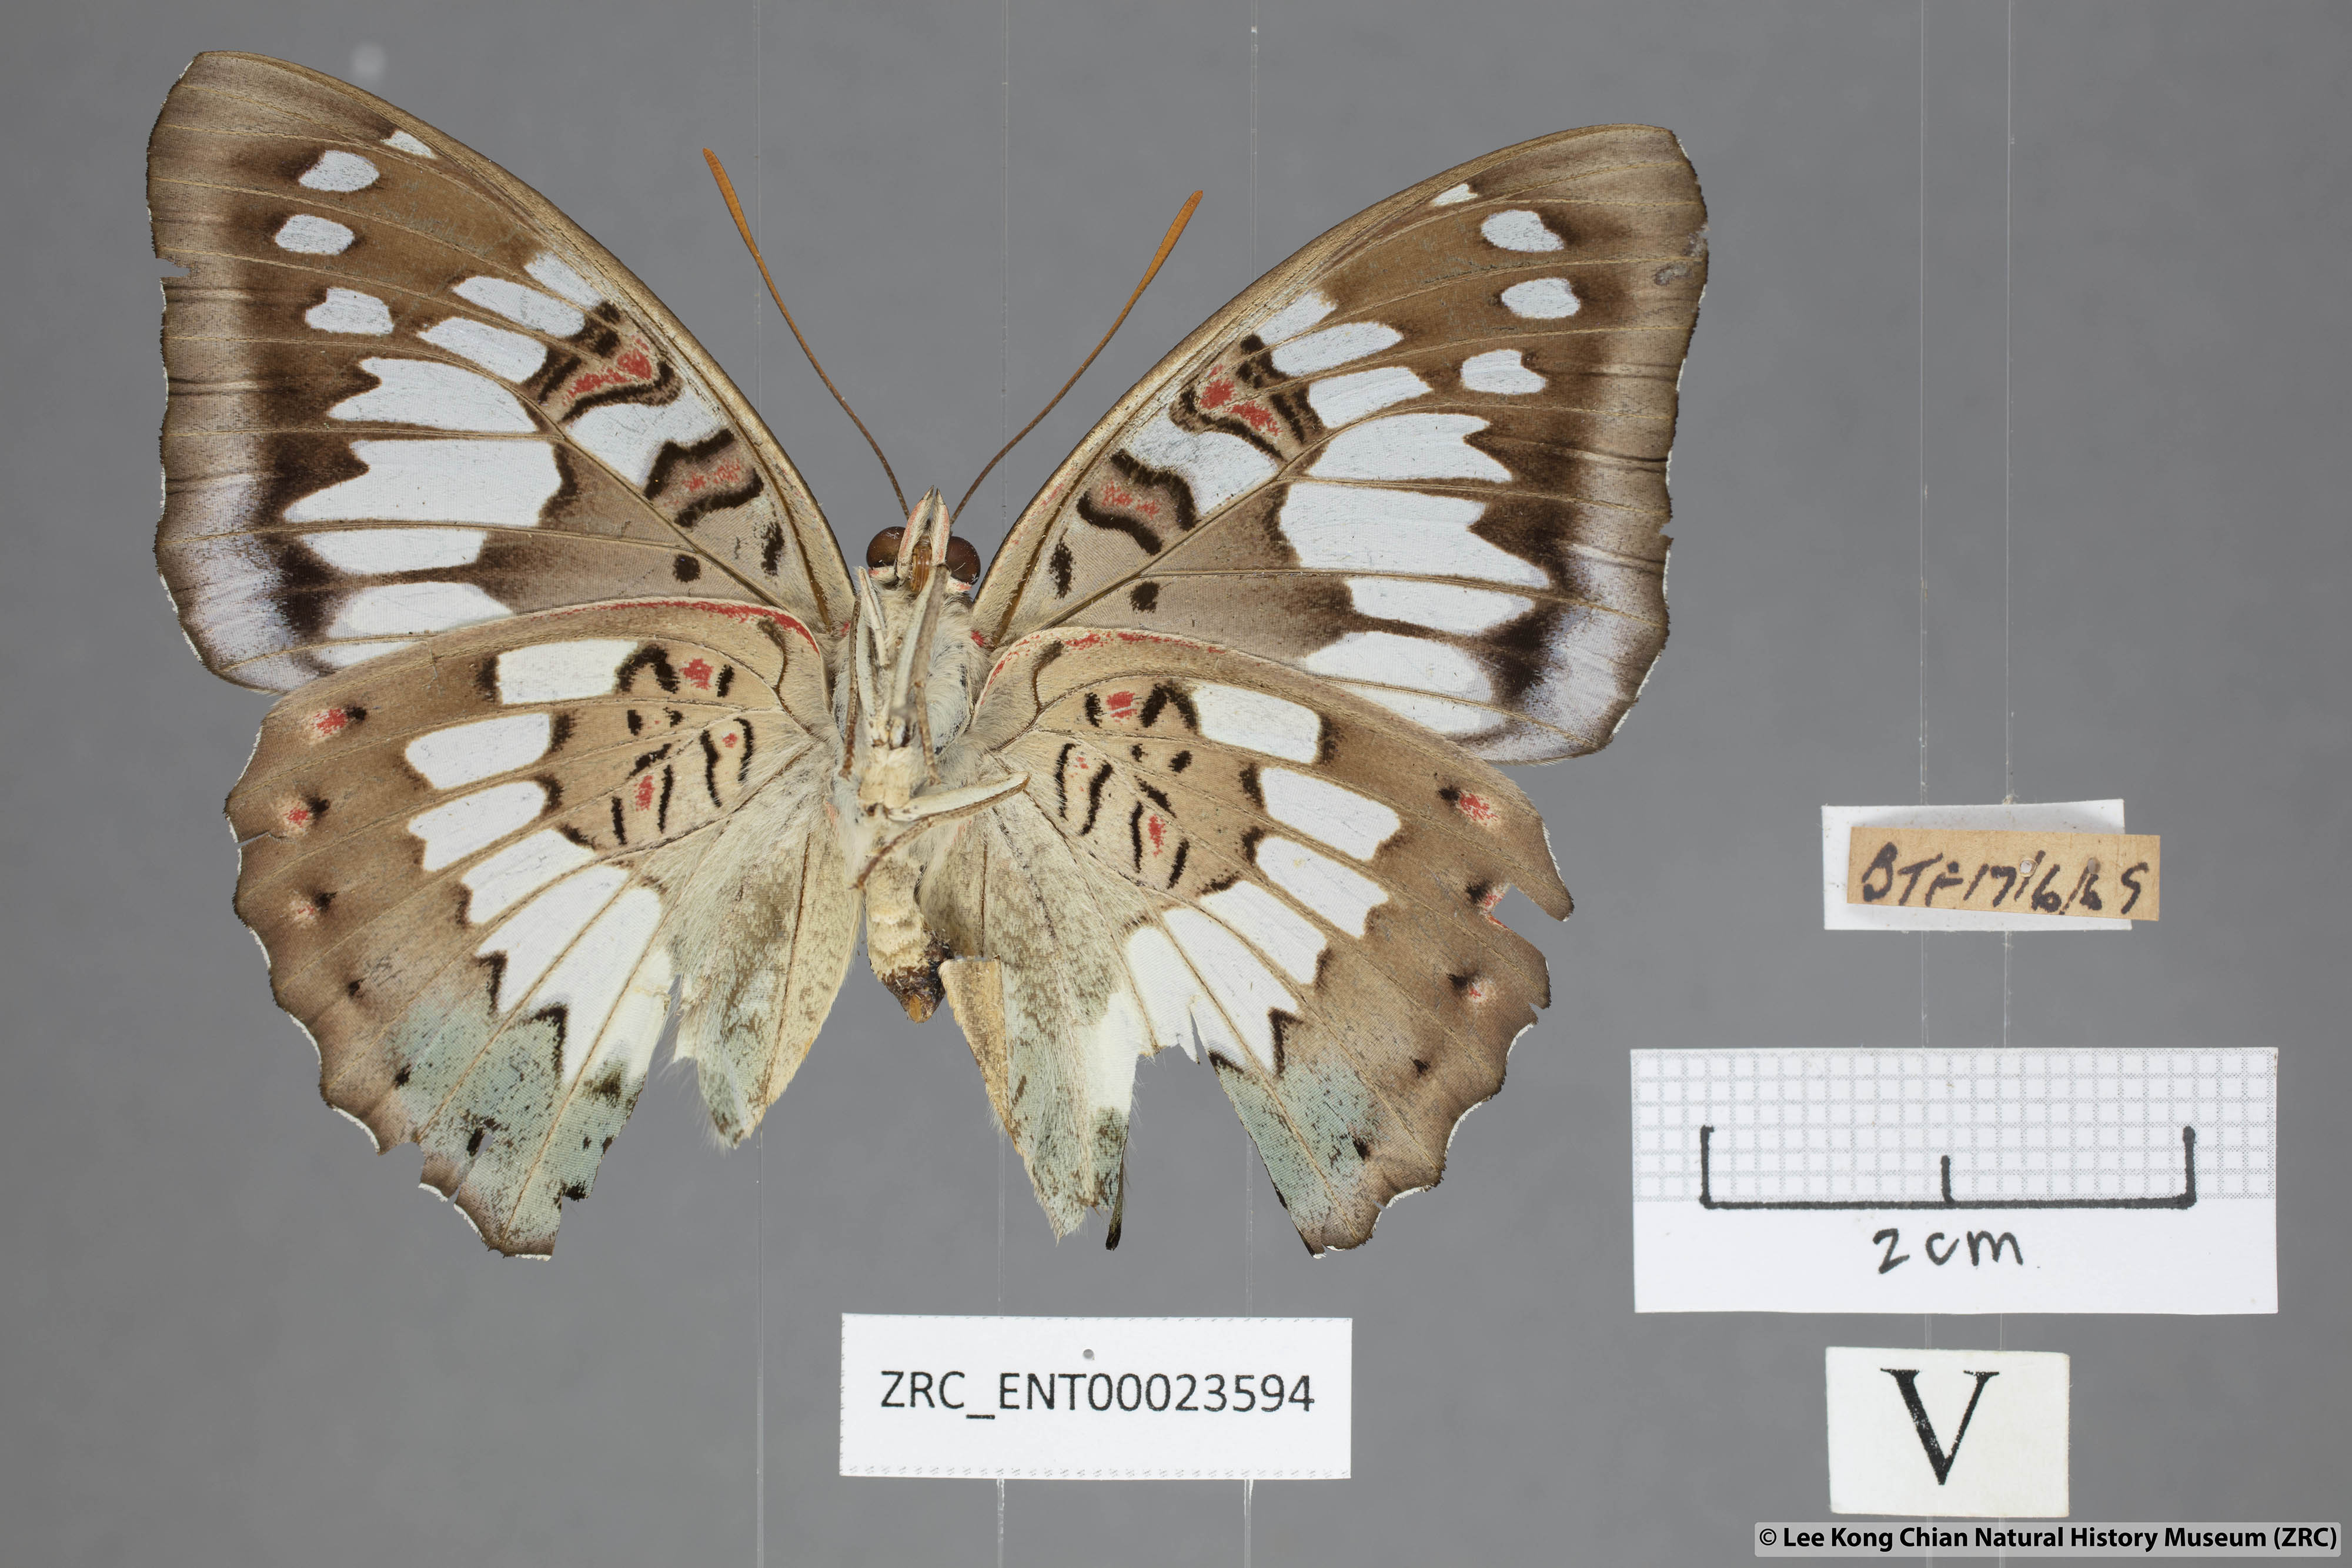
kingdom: Animalia
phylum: Arthropoda
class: Insecta
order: Lepidoptera
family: Nymphalidae
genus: Euthalia
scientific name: Euthalia adonia
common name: Green baron
